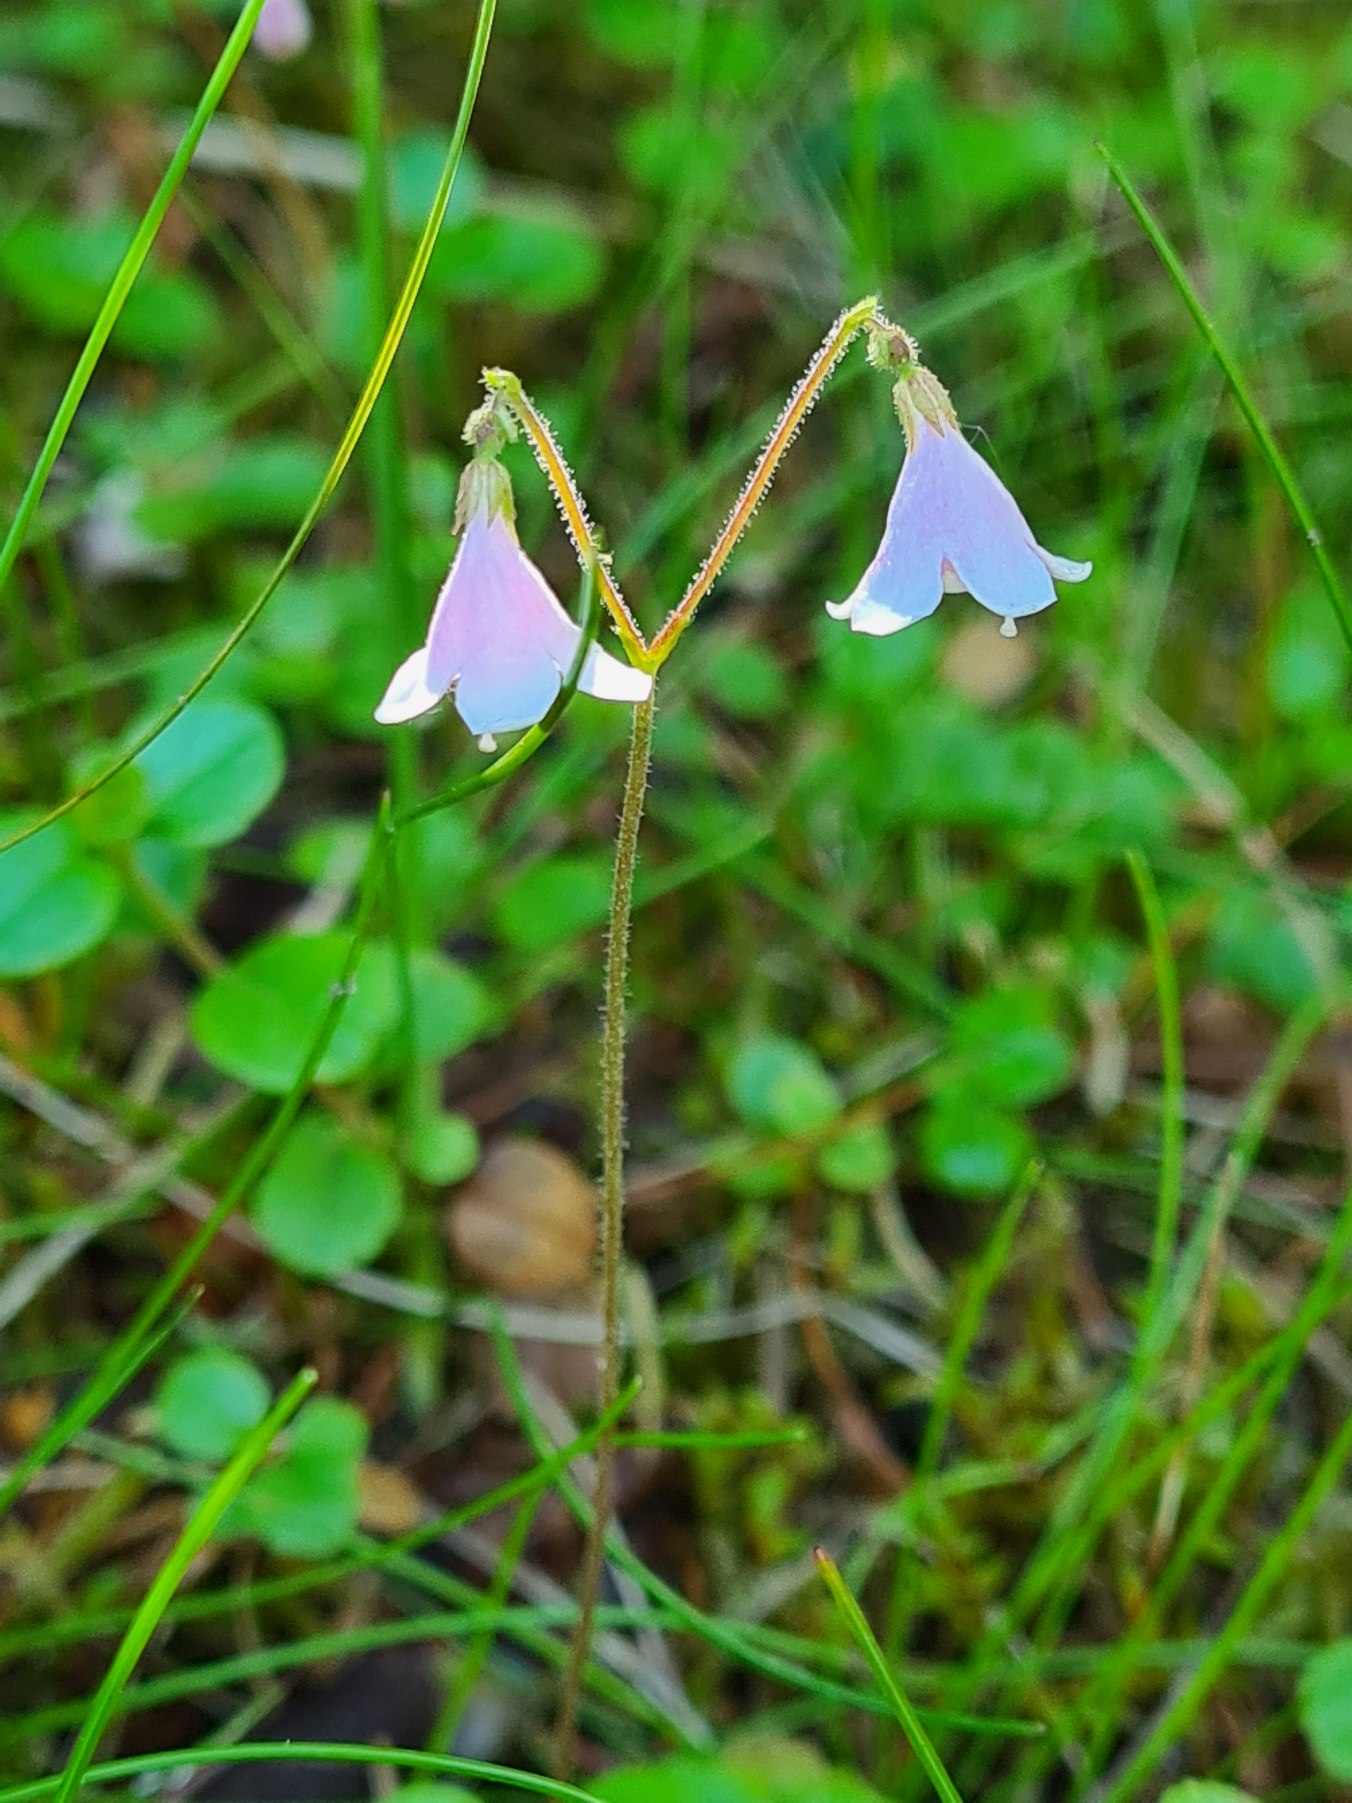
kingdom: Plantae
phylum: Tracheophyta
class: Magnoliopsida
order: Dipsacales
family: Caprifoliaceae
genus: Linnaea
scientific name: Linnaea borealis
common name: Linnæa
